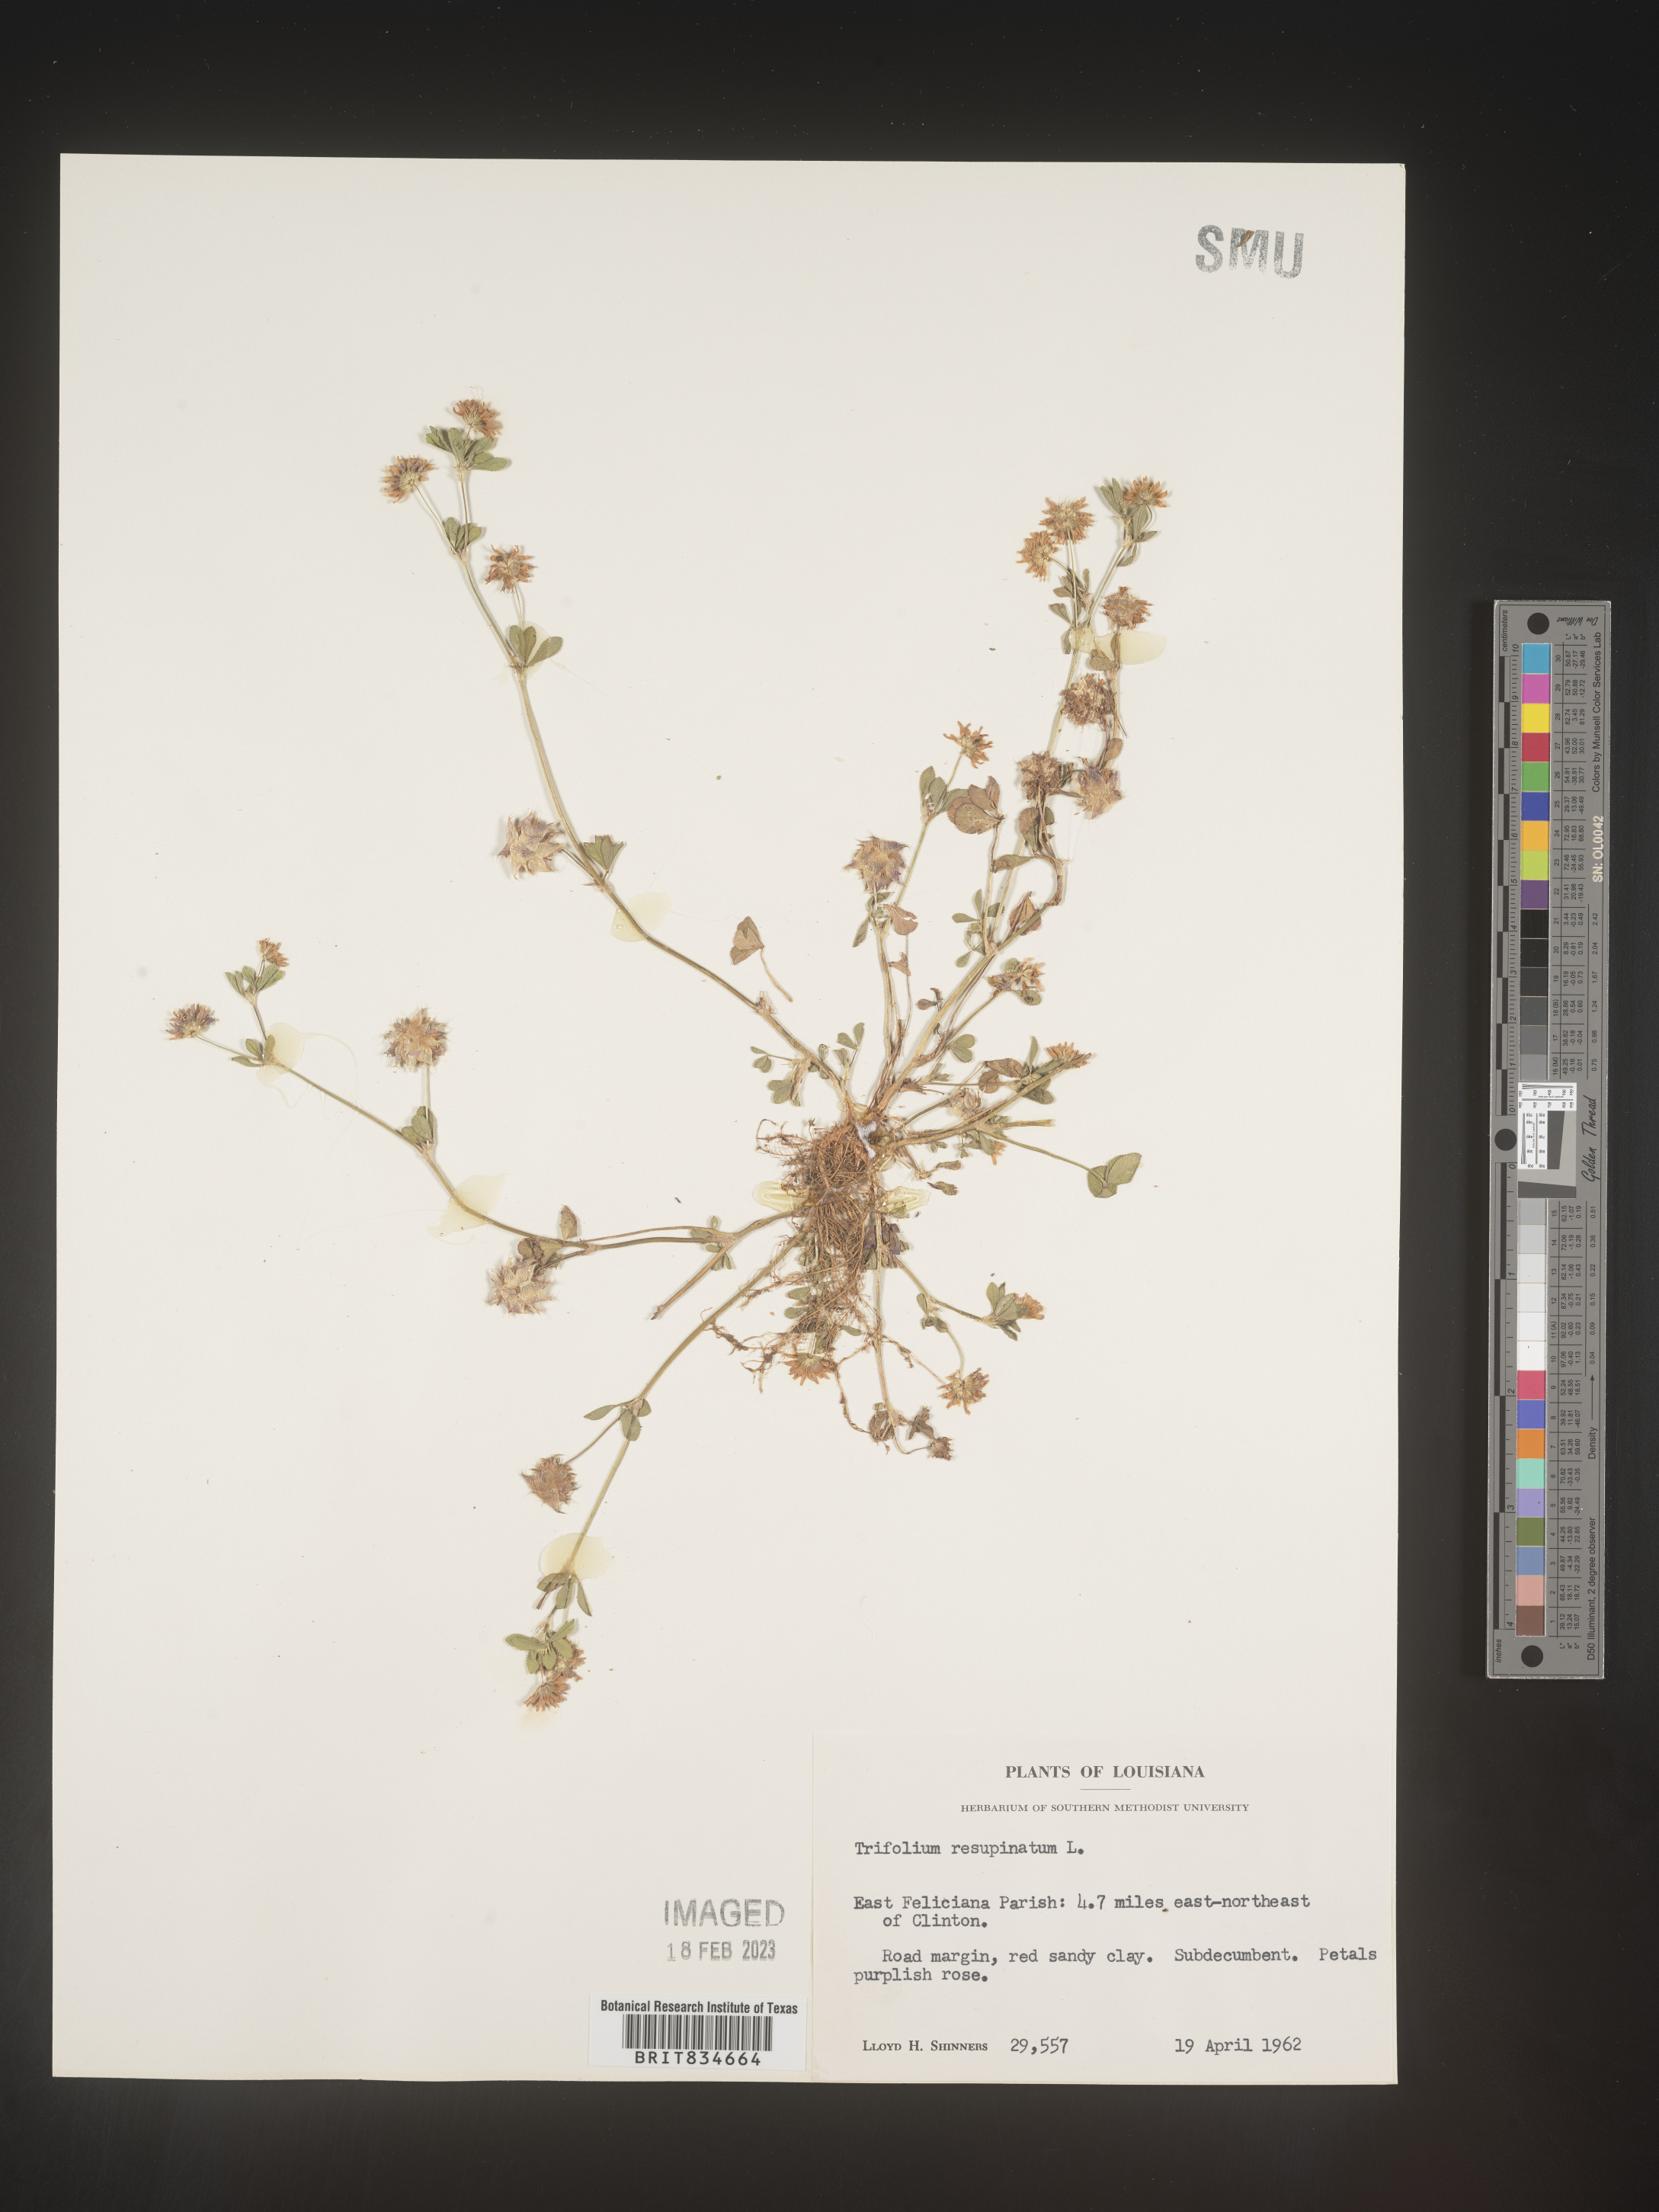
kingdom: Plantae
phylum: Tracheophyta
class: Magnoliopsida
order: Fabales
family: Fabaceae
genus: Trifolium
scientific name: Trifolium resupinatum
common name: Reversed clover
